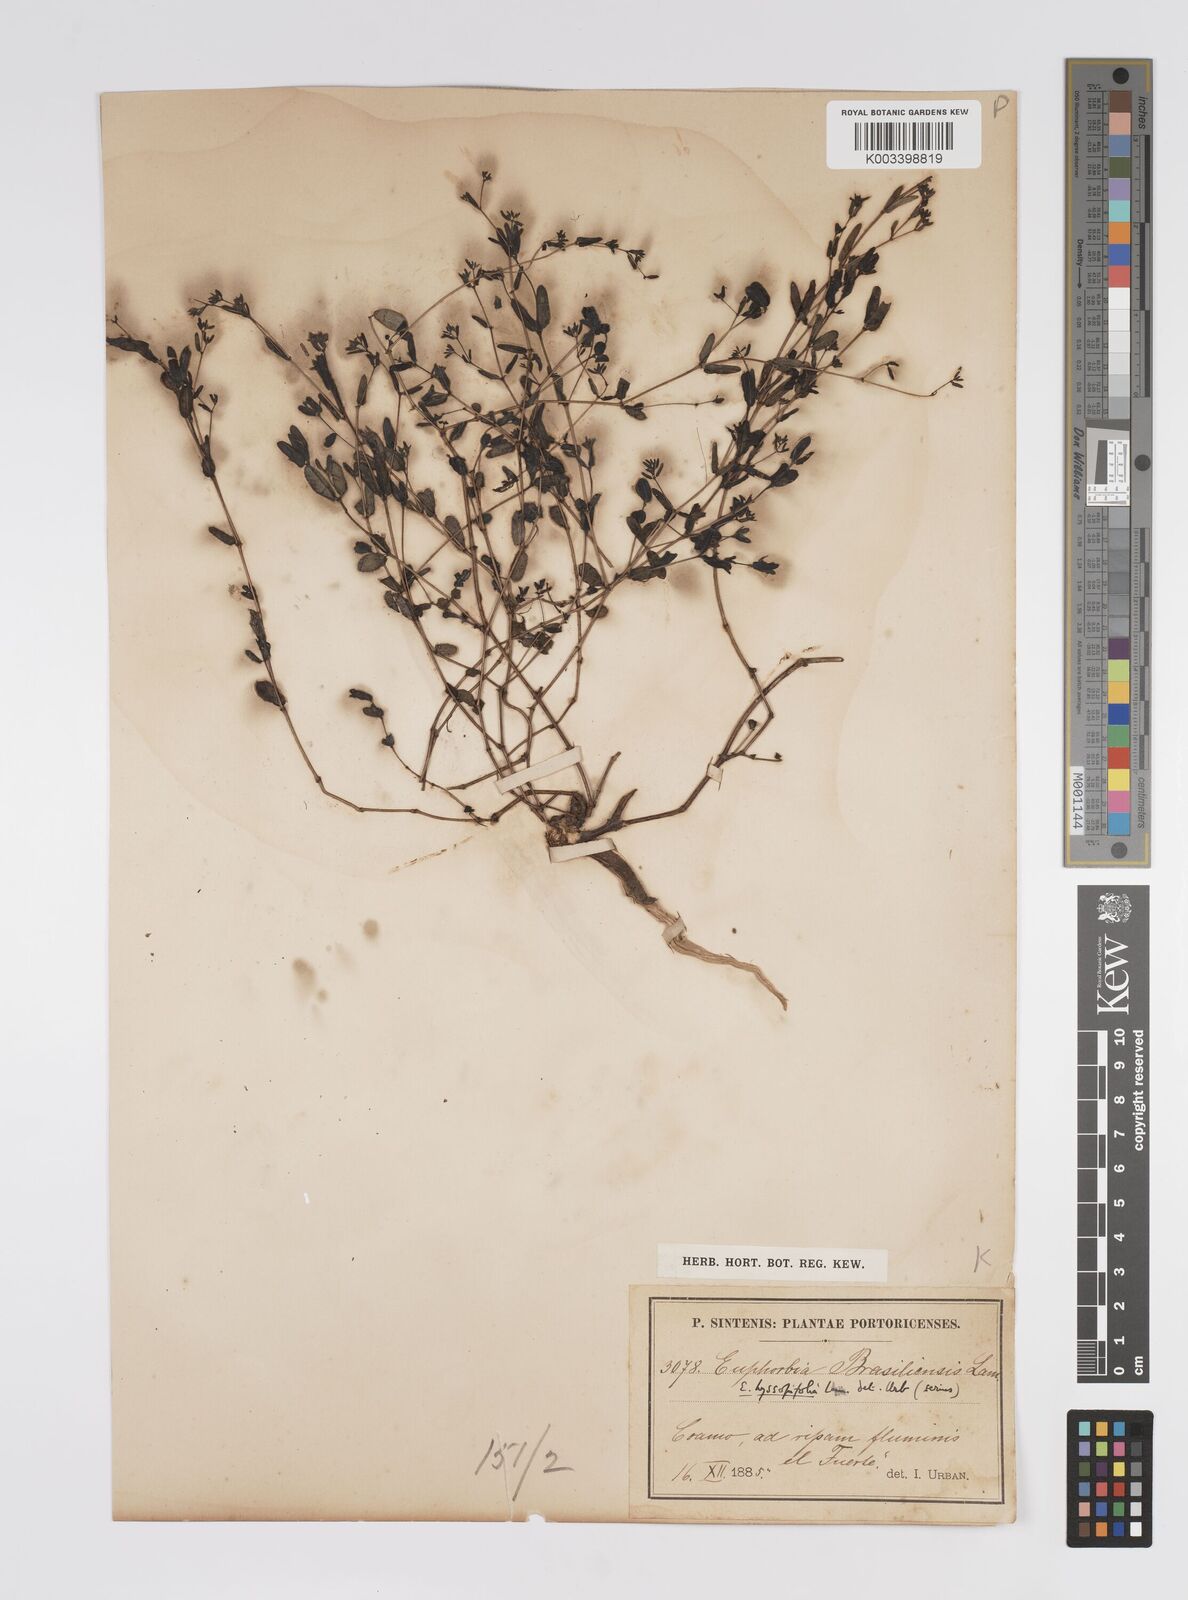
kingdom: Plantae
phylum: Tracheophyta
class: Magnoliopsida
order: Malpighiales
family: Euphorbiaceae
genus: Euphorbia
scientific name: Euphorbia hyssopifolia
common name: Hyssopleaf sandmat
